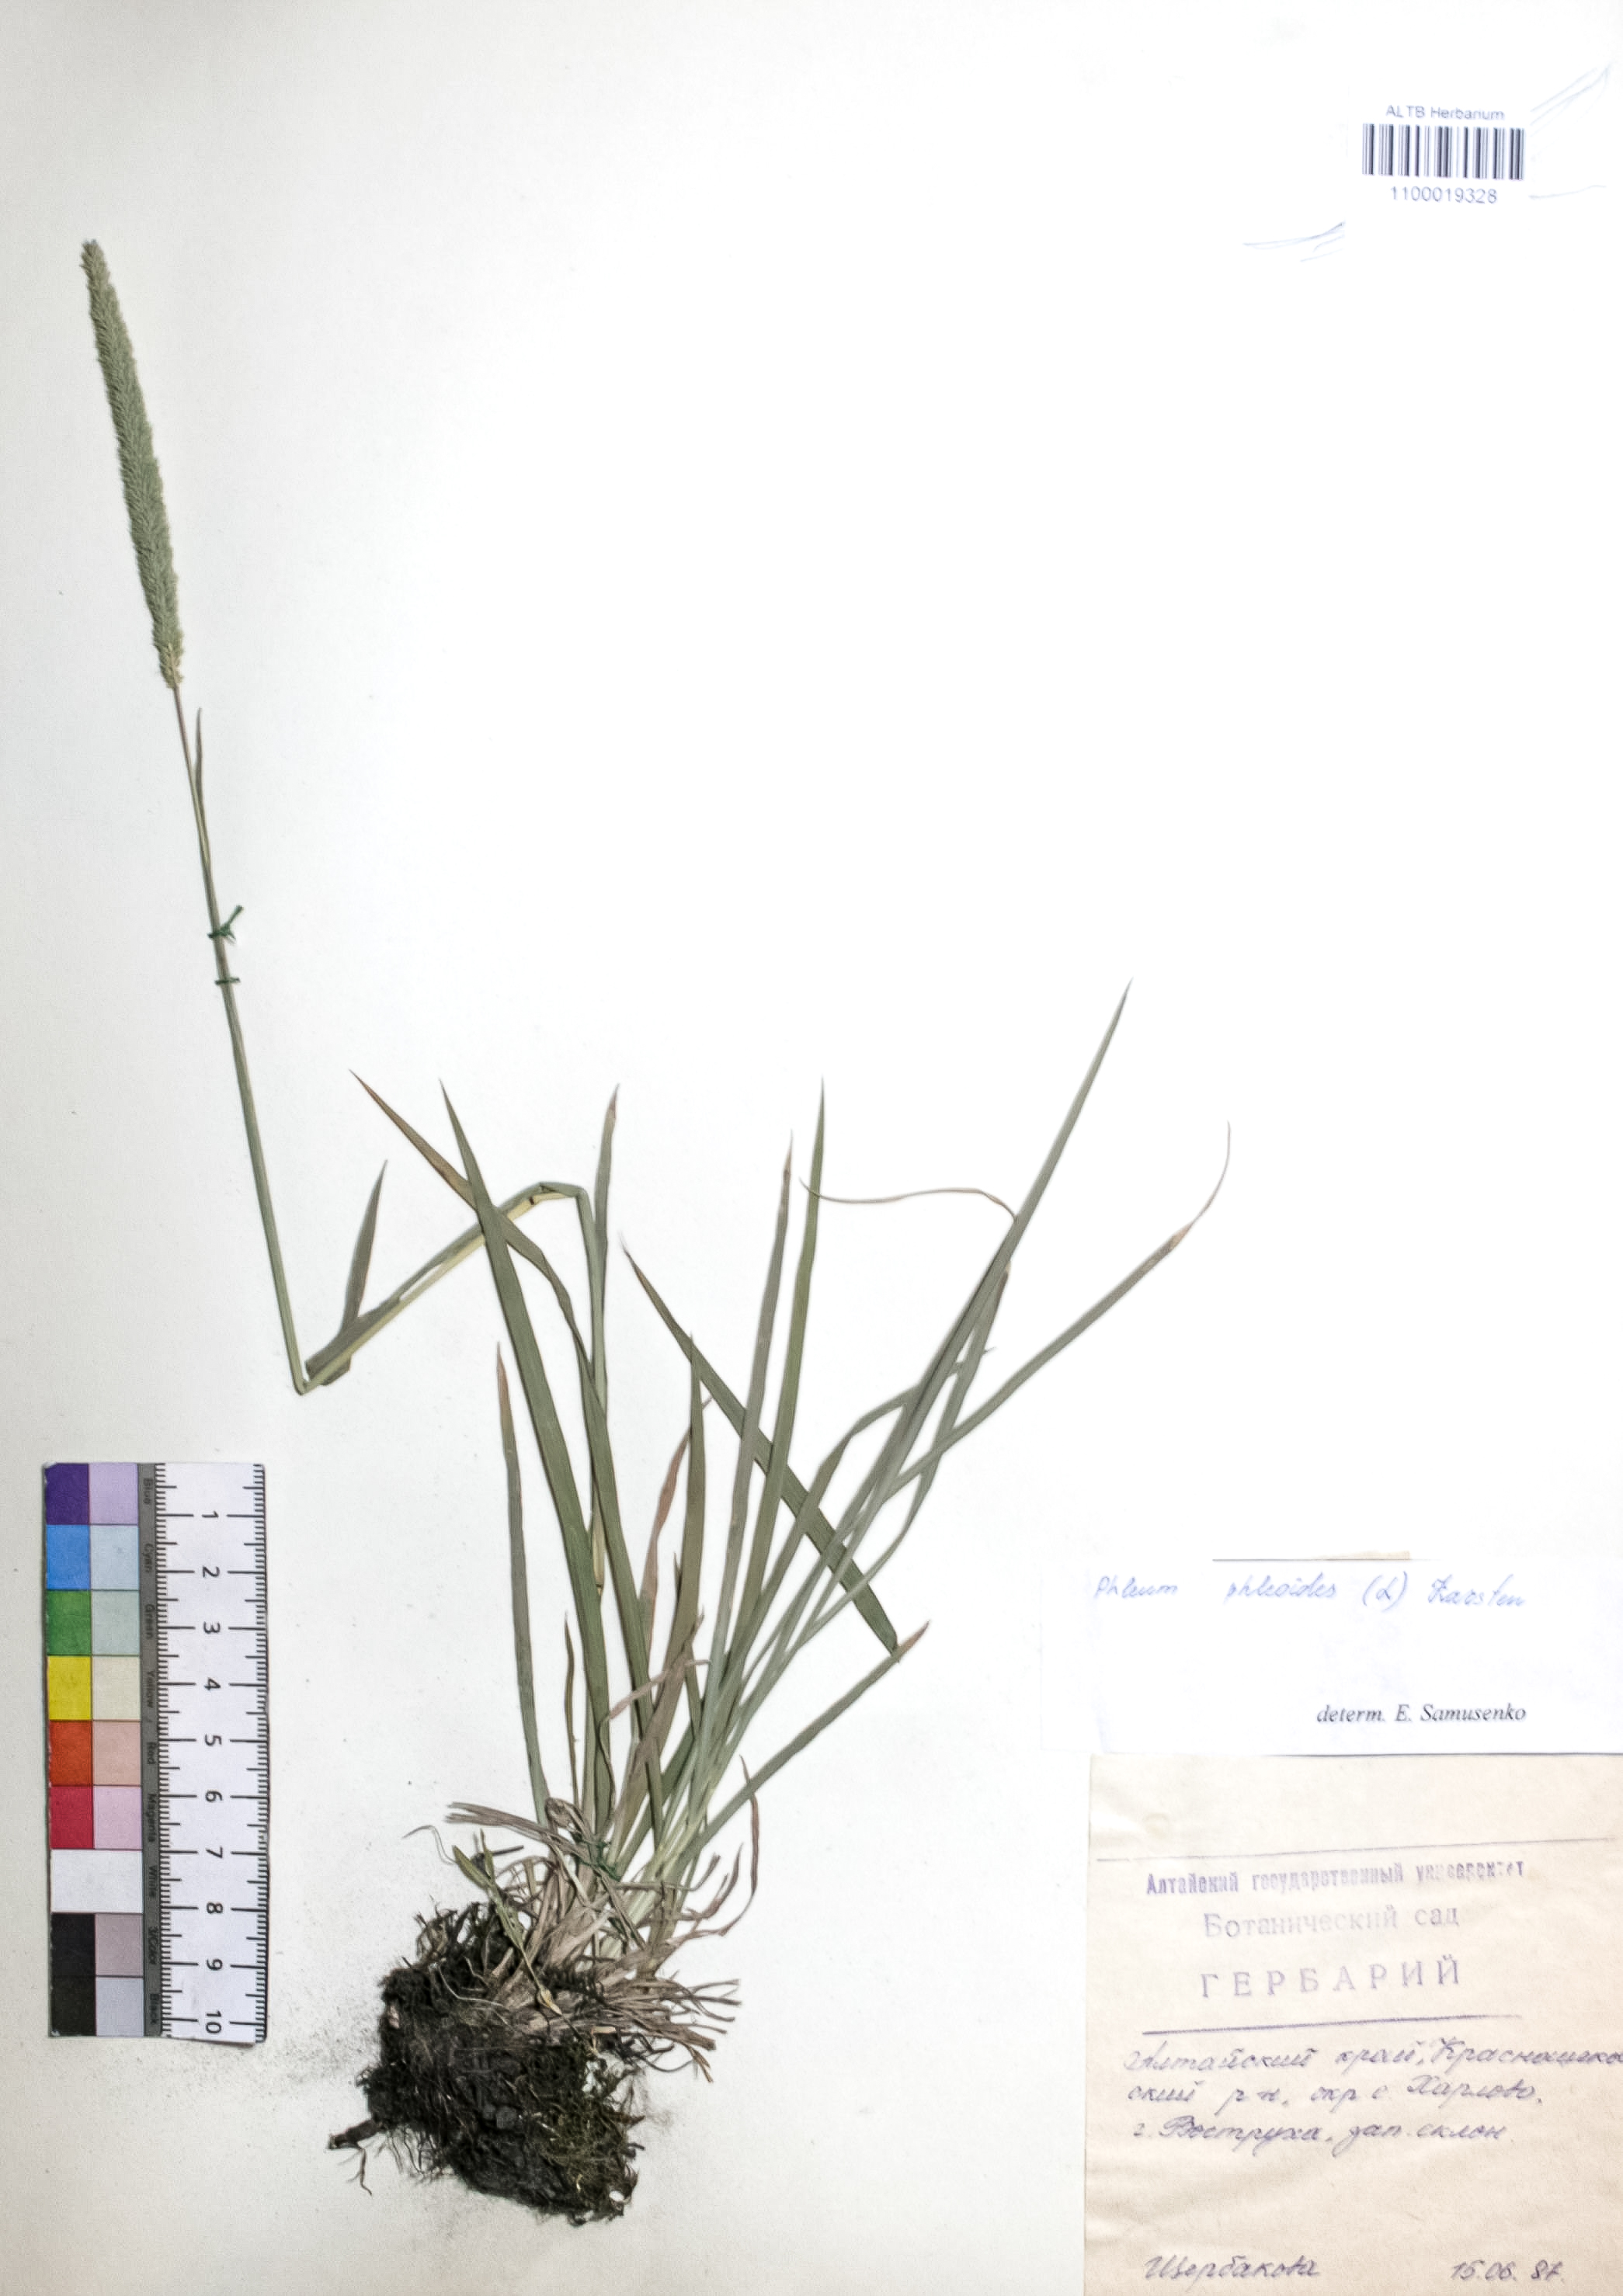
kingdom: Plantae
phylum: Tracheophyta
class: Liliopsida
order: Poales
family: Poaceae
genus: Phleum
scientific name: Phleum phleoides
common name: Purple-stem cat's-tail
